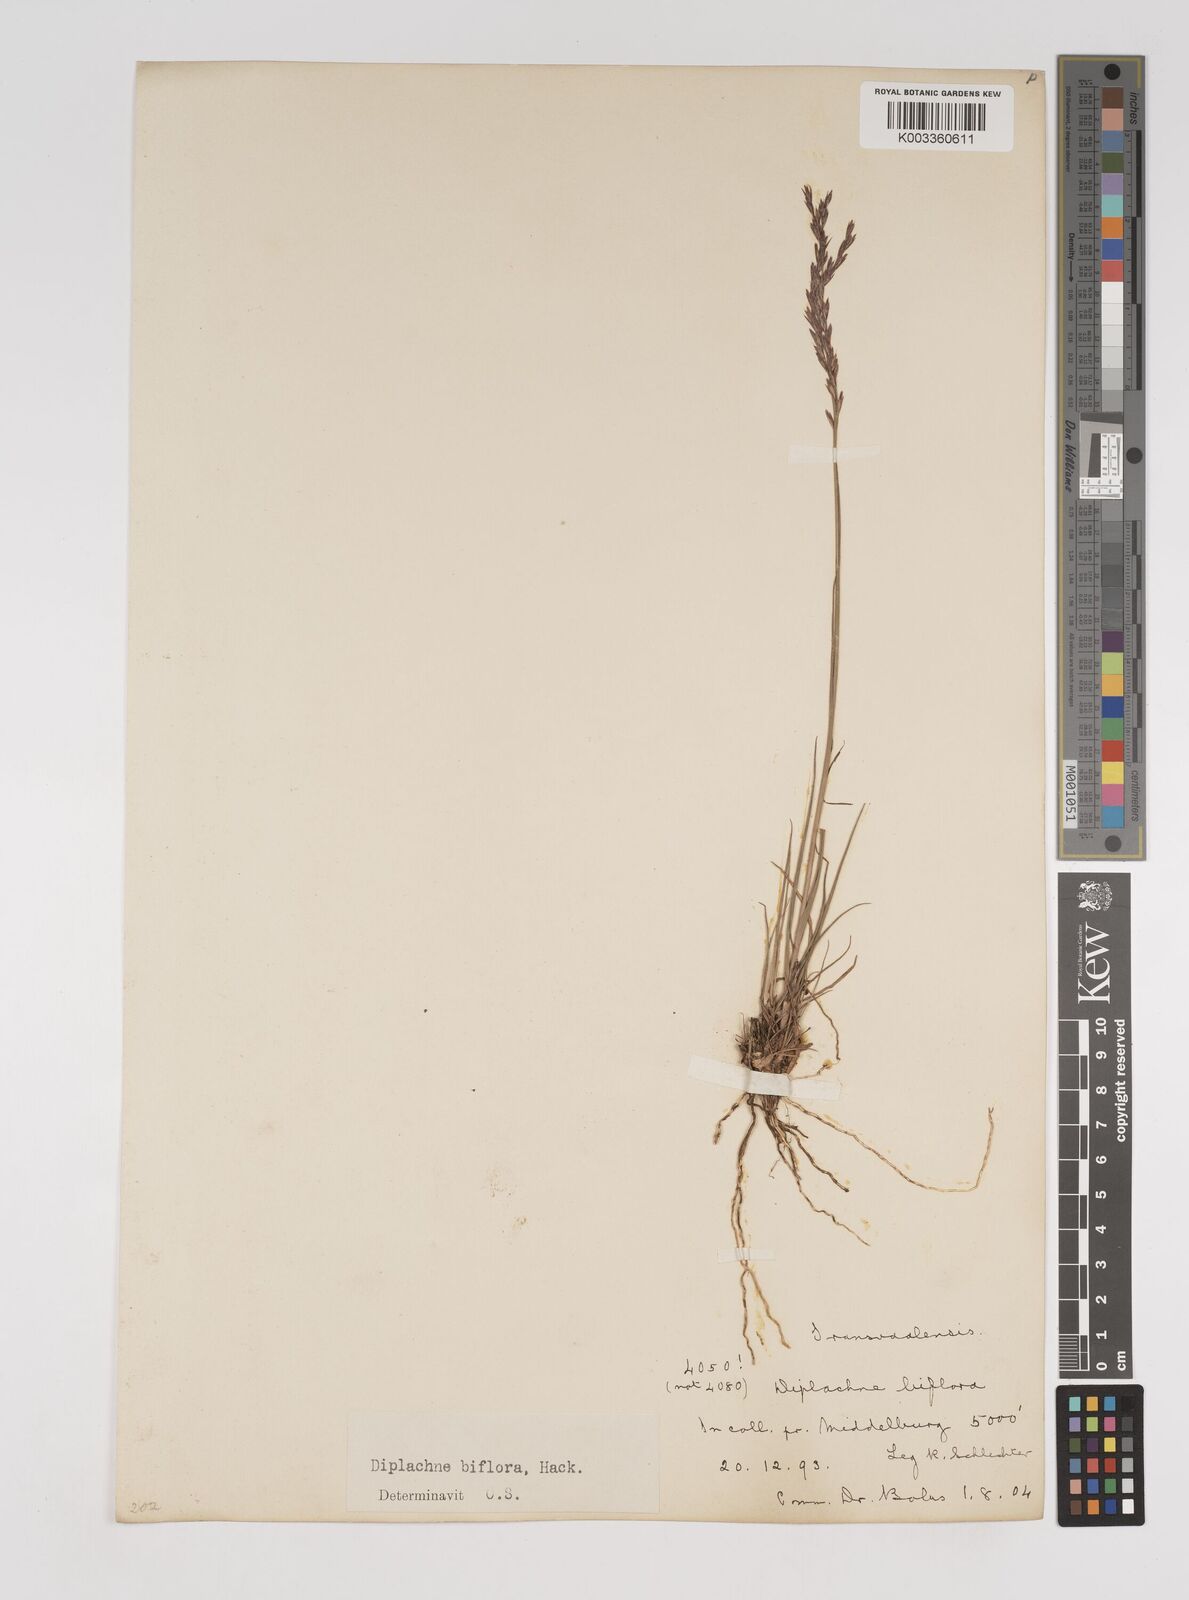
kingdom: Plantae
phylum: Tracheophyta
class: Liliopsida
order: Poales
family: Poaceae
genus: Bewsia
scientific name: Bewsia biflora
